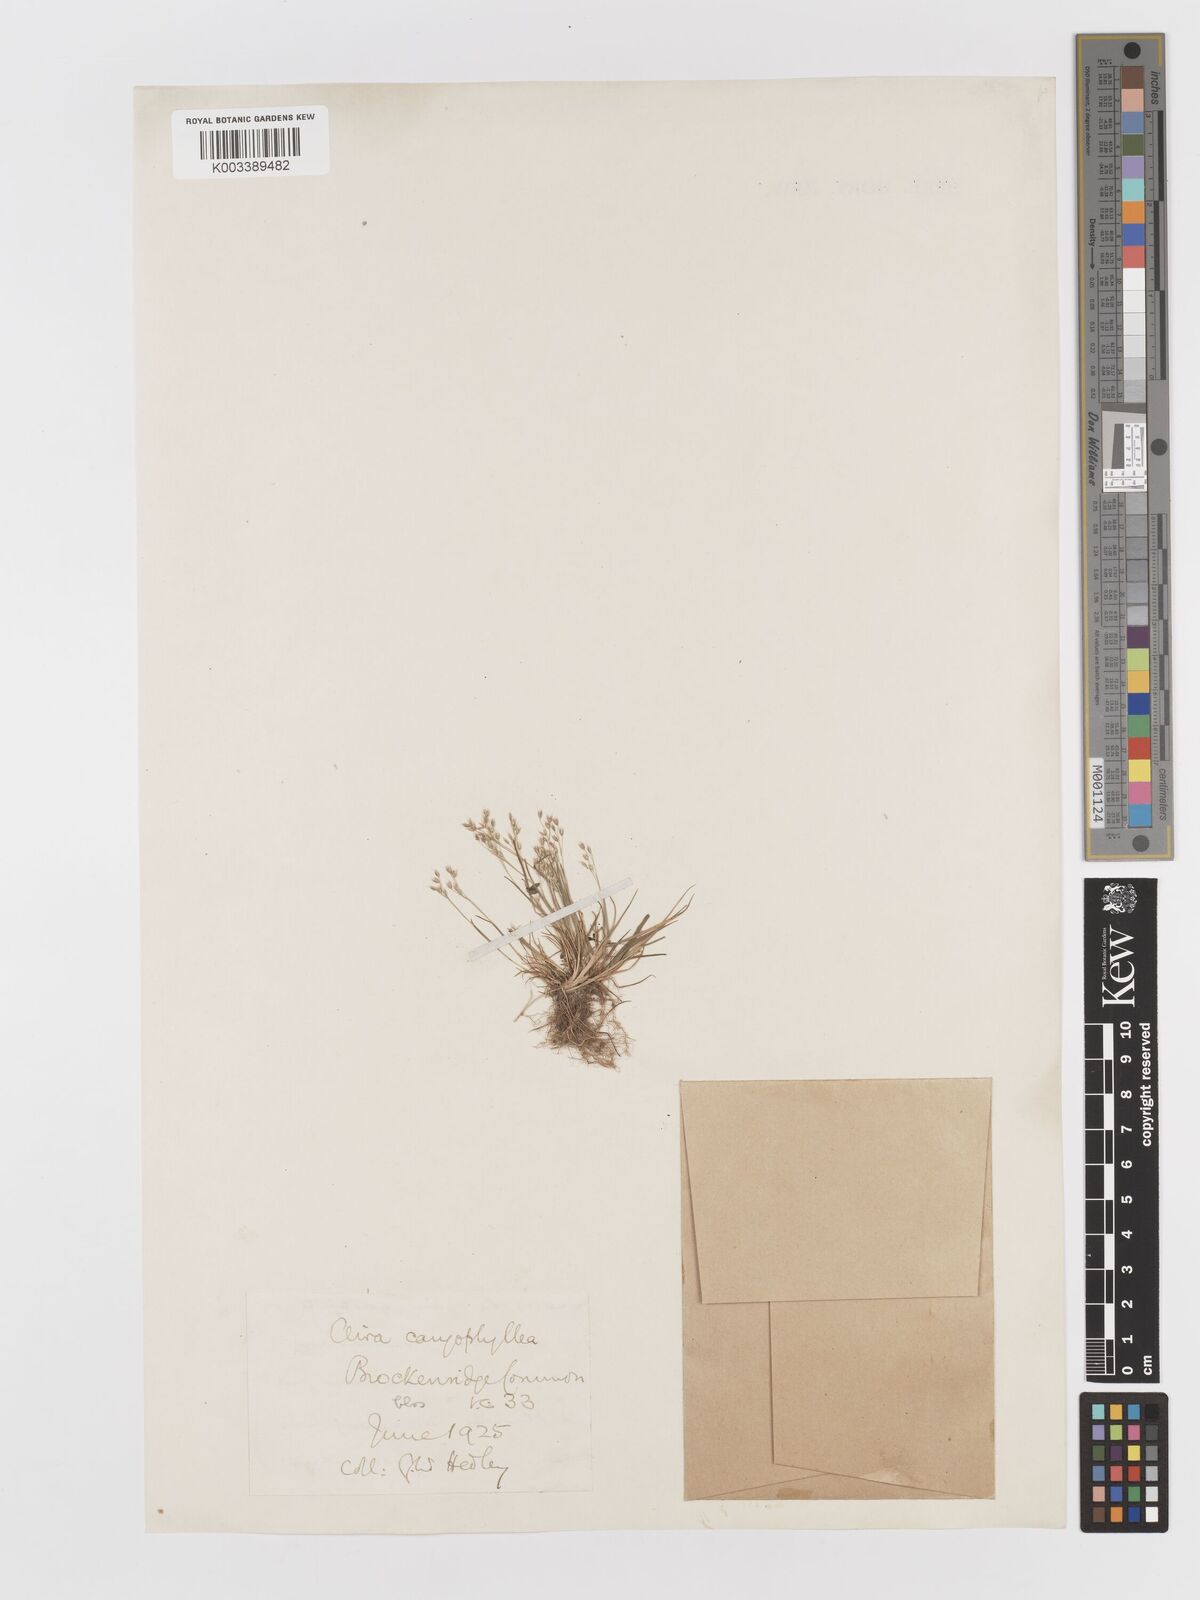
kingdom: Plantae
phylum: Tracheophyta
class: Liliopsida
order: Poales
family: Poaceae
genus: Aira
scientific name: Aira caryophyllea
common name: Silver hairgrass
